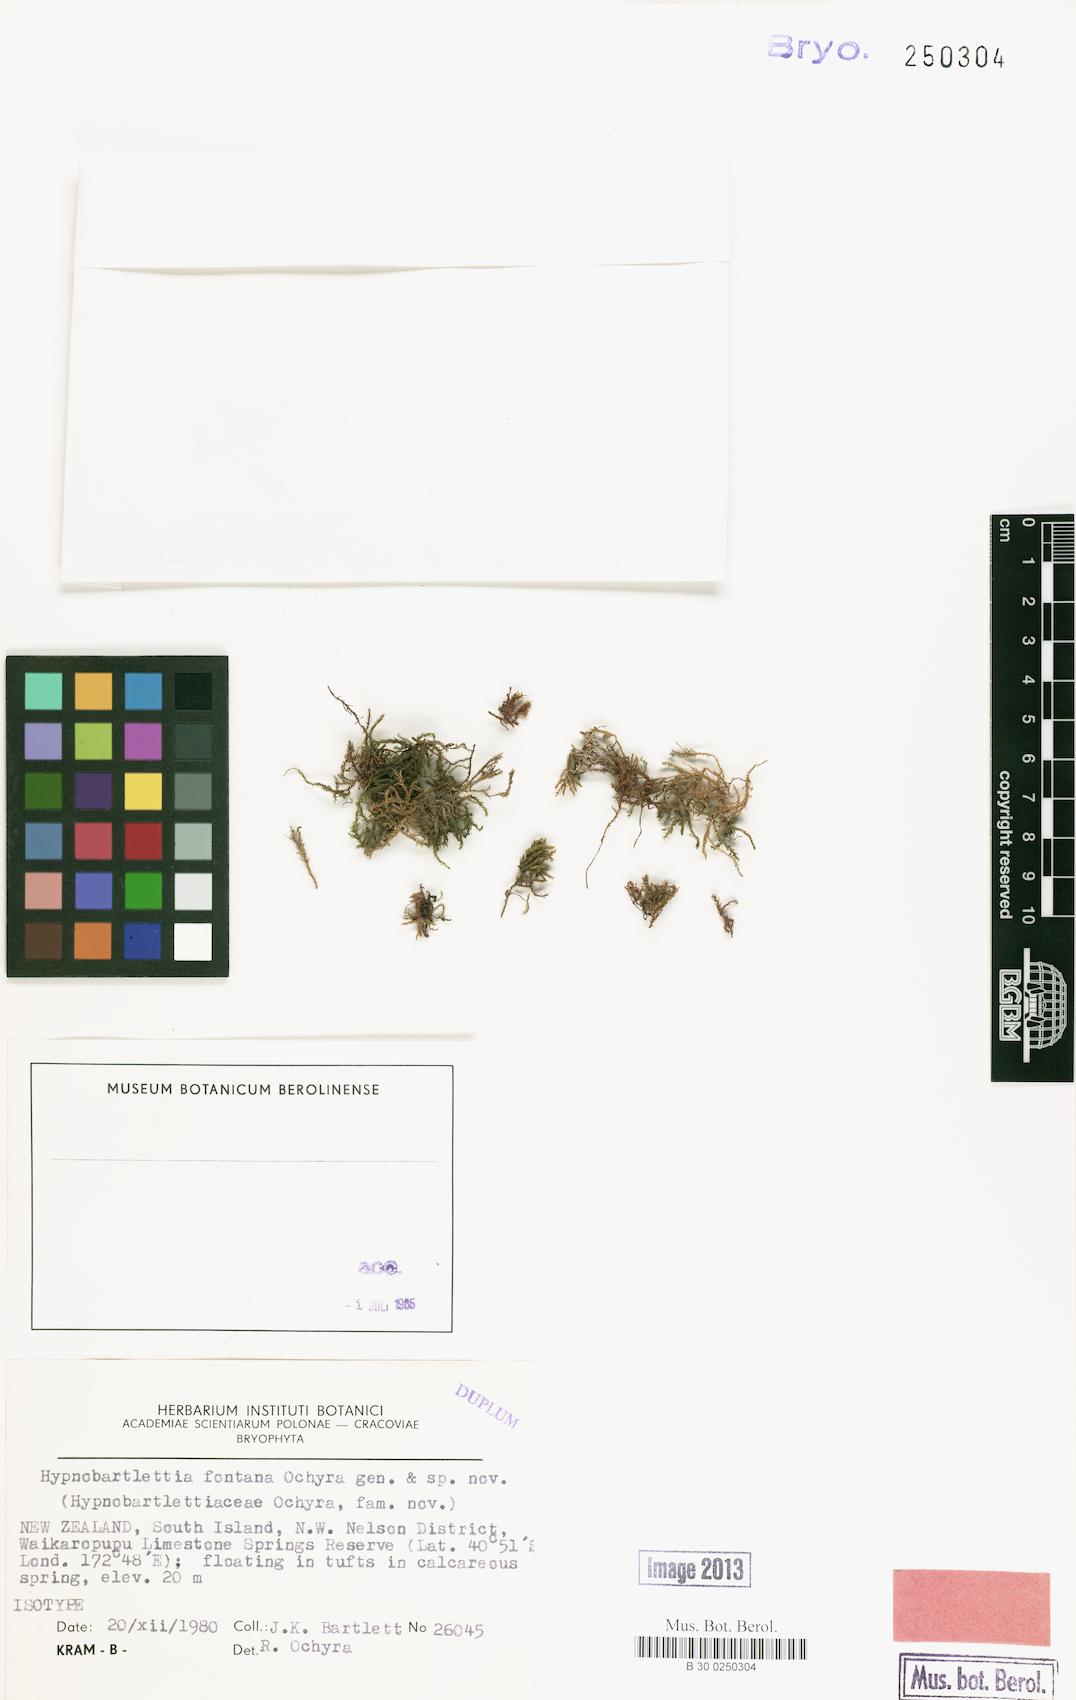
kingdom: Plantae
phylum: Bryophyta
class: Bryopsida
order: Hypnales
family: Amblystegiaceae
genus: Cratoneuropsis
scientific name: Cratoneuropsis relaxa
